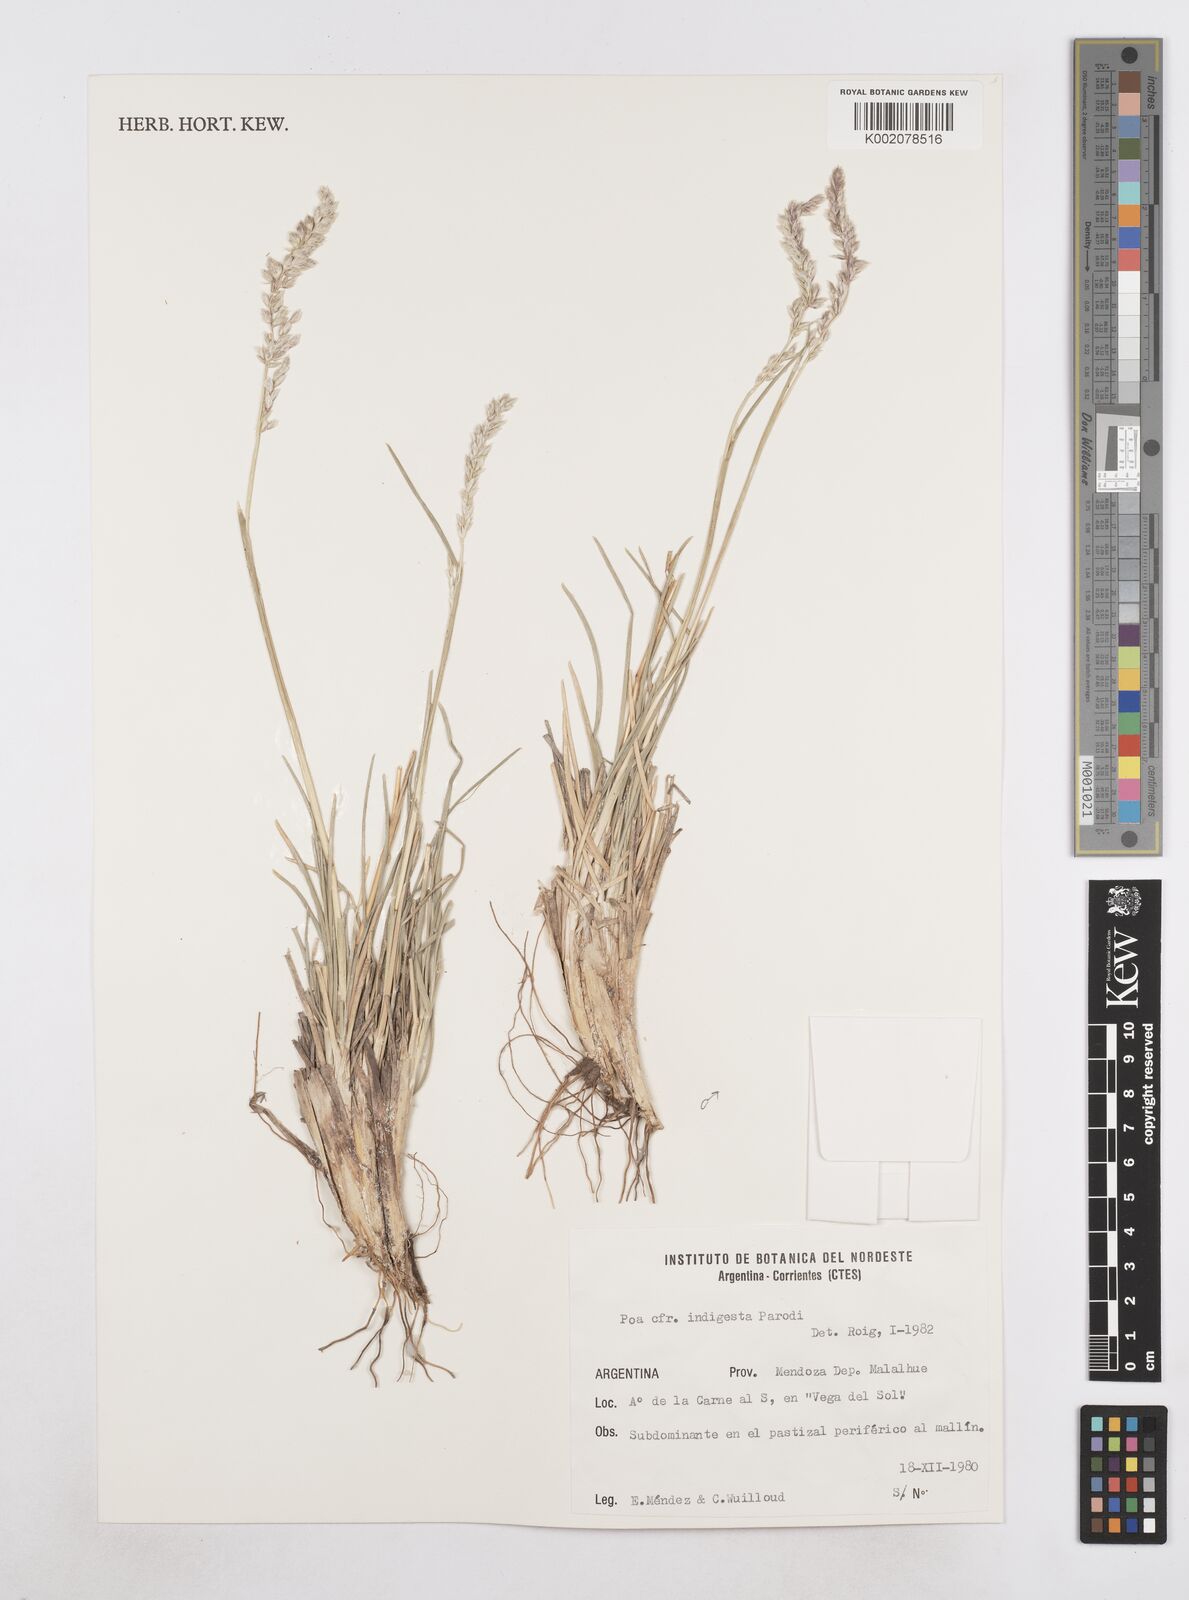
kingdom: Plantae
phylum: Tracheophyta
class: Liliopsida
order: Poales
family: Poaceae
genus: Poa
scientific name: Poa huecu
